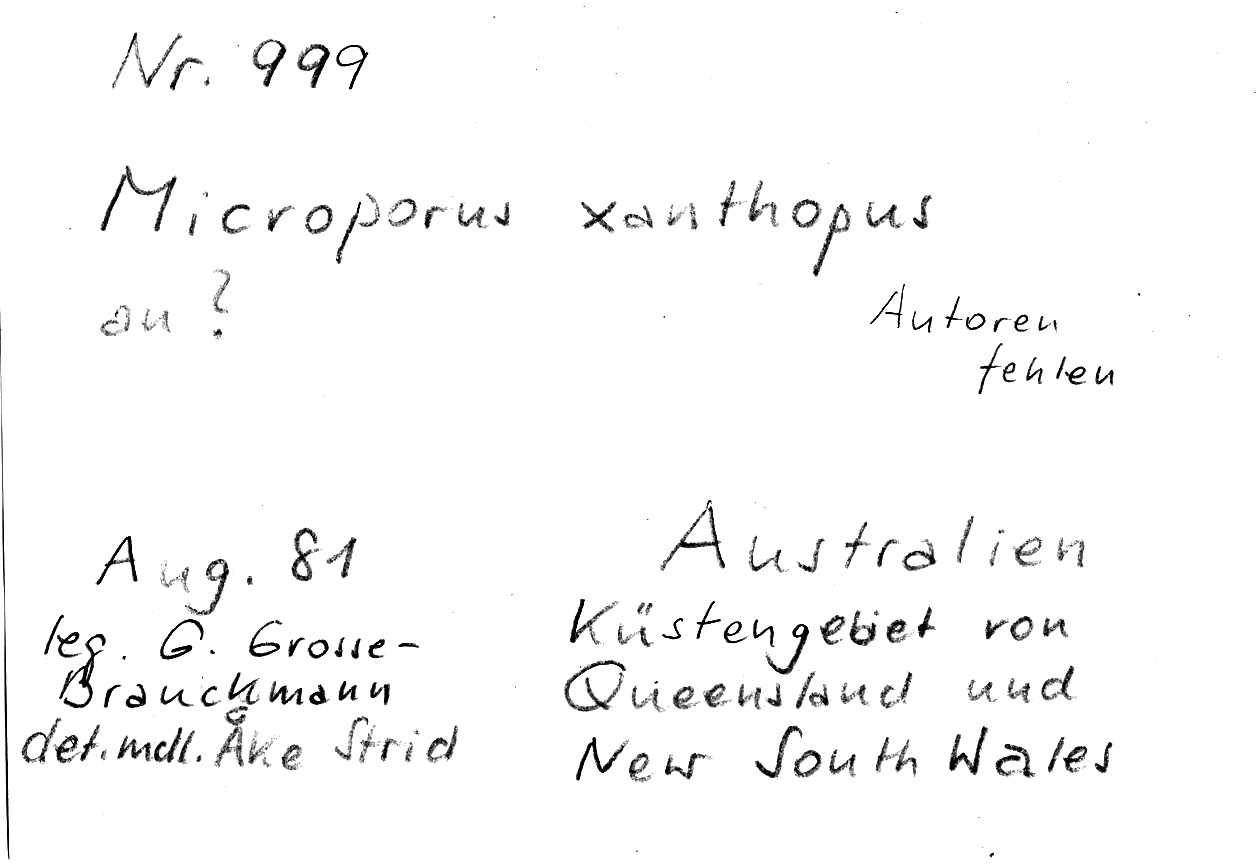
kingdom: Fungi
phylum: Basidiomycota
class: Agaricomycetes
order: Polyporales
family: Polyporaceae
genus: Microporus
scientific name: Microporus xanthopus
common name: Yellow-stemmed micropore
